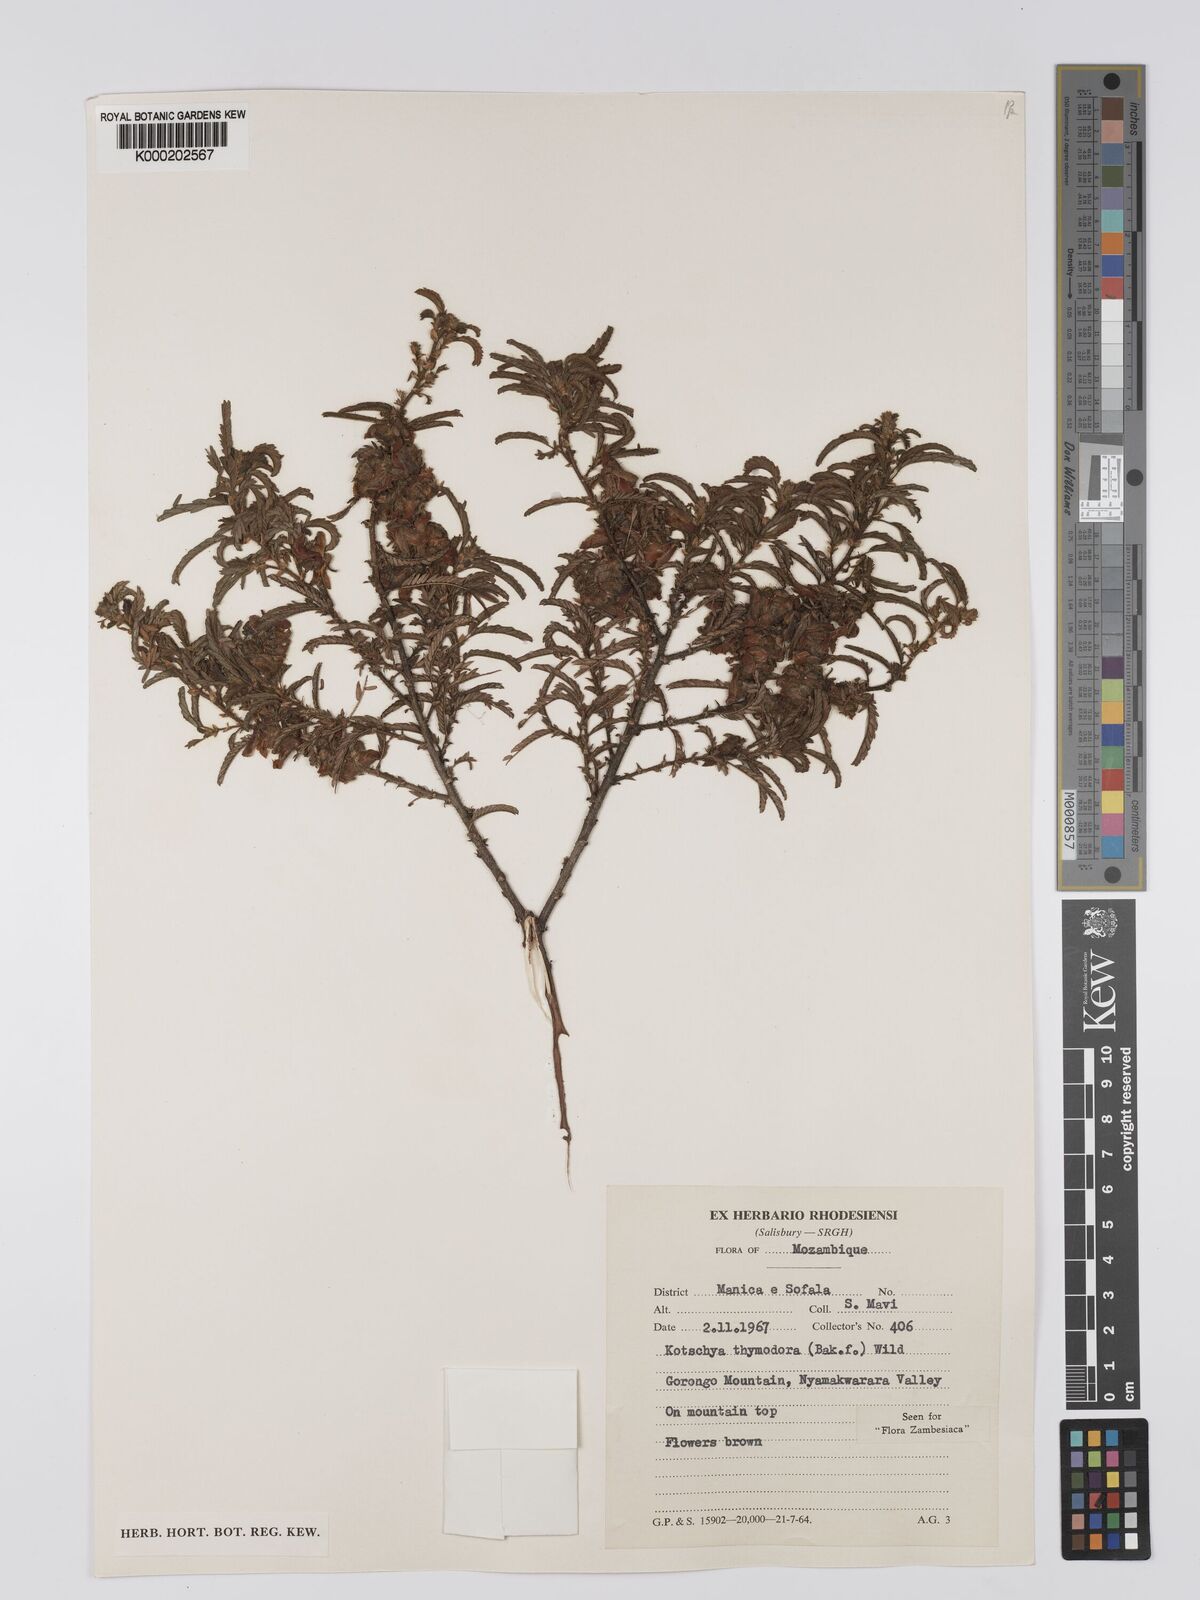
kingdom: Plantae
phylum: Tracheophyta
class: Magnoliopsida
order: Fabales
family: Fabaceae
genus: Kotschya
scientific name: Kotschya thymodora
